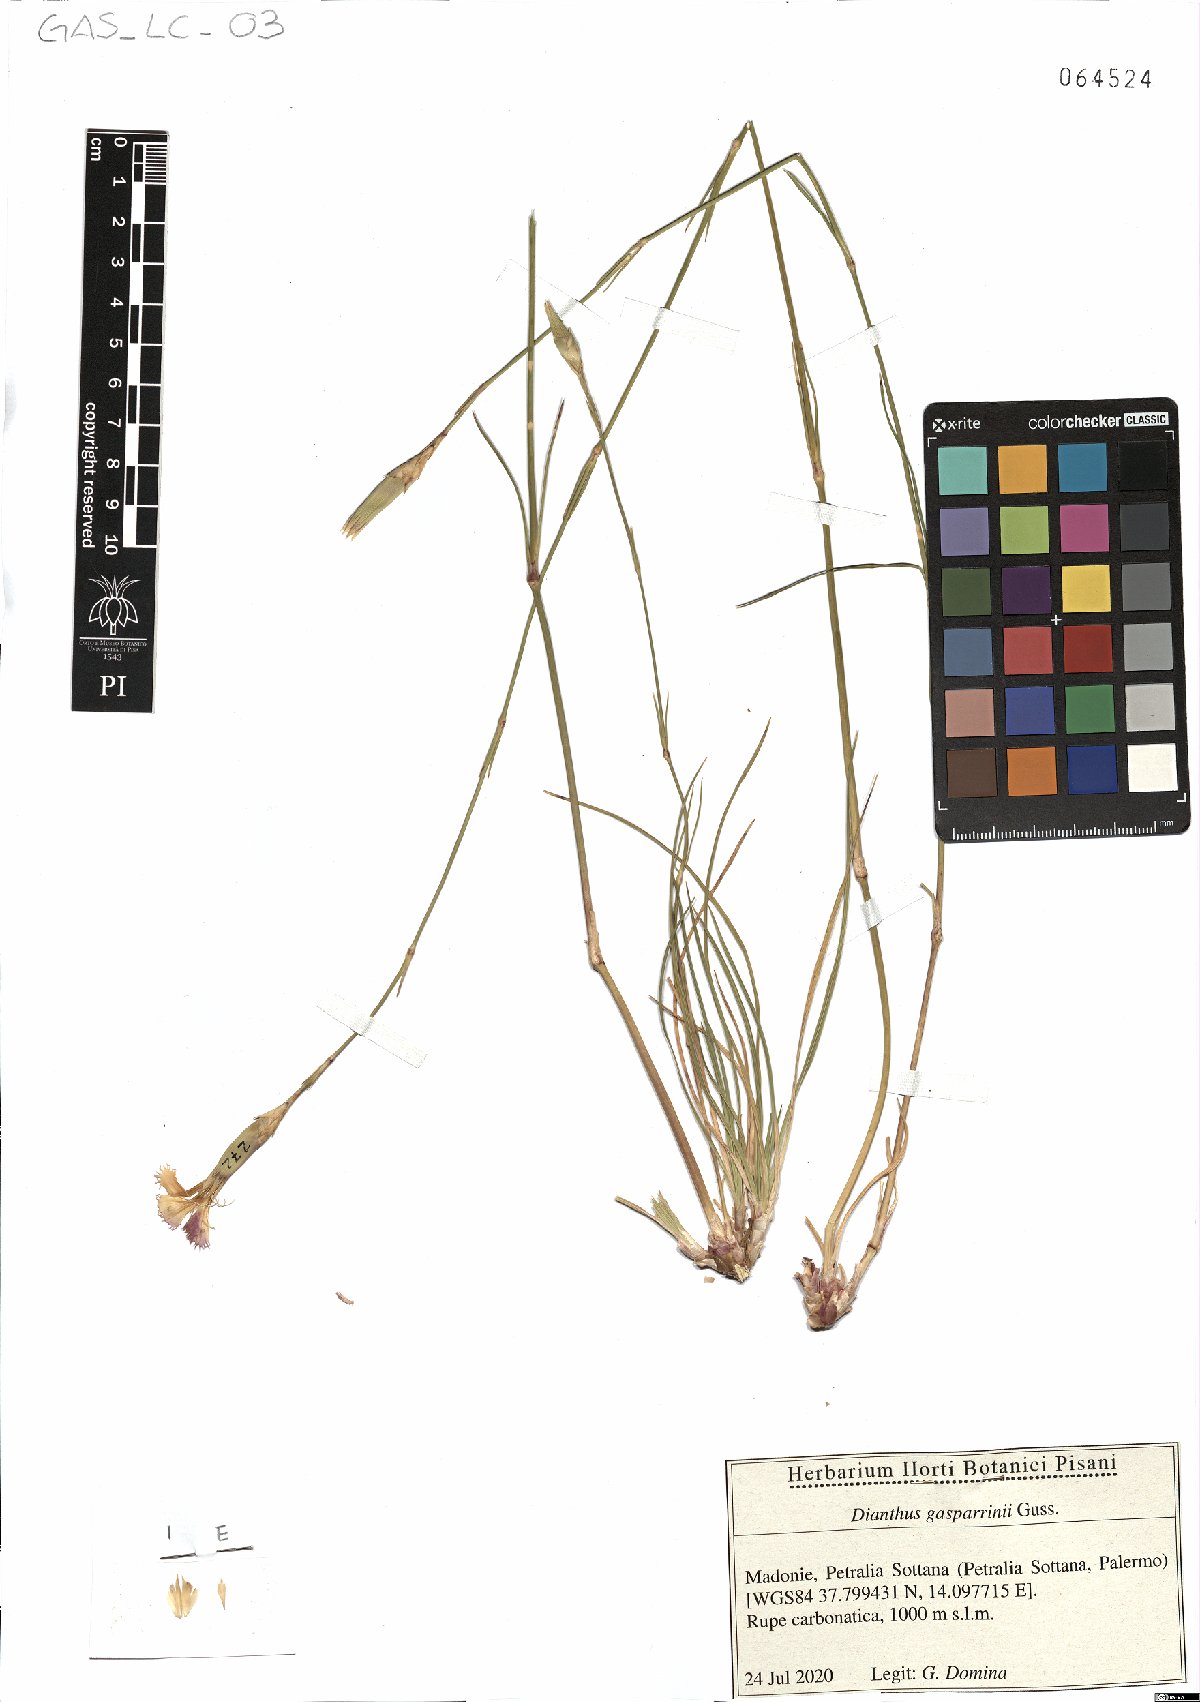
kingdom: Plantae
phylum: Tracheophyta
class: Magnoliopsida
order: Caryophyllales
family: Caryophyllaceae
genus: Dianthus
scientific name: Dianthus gasparrinii
